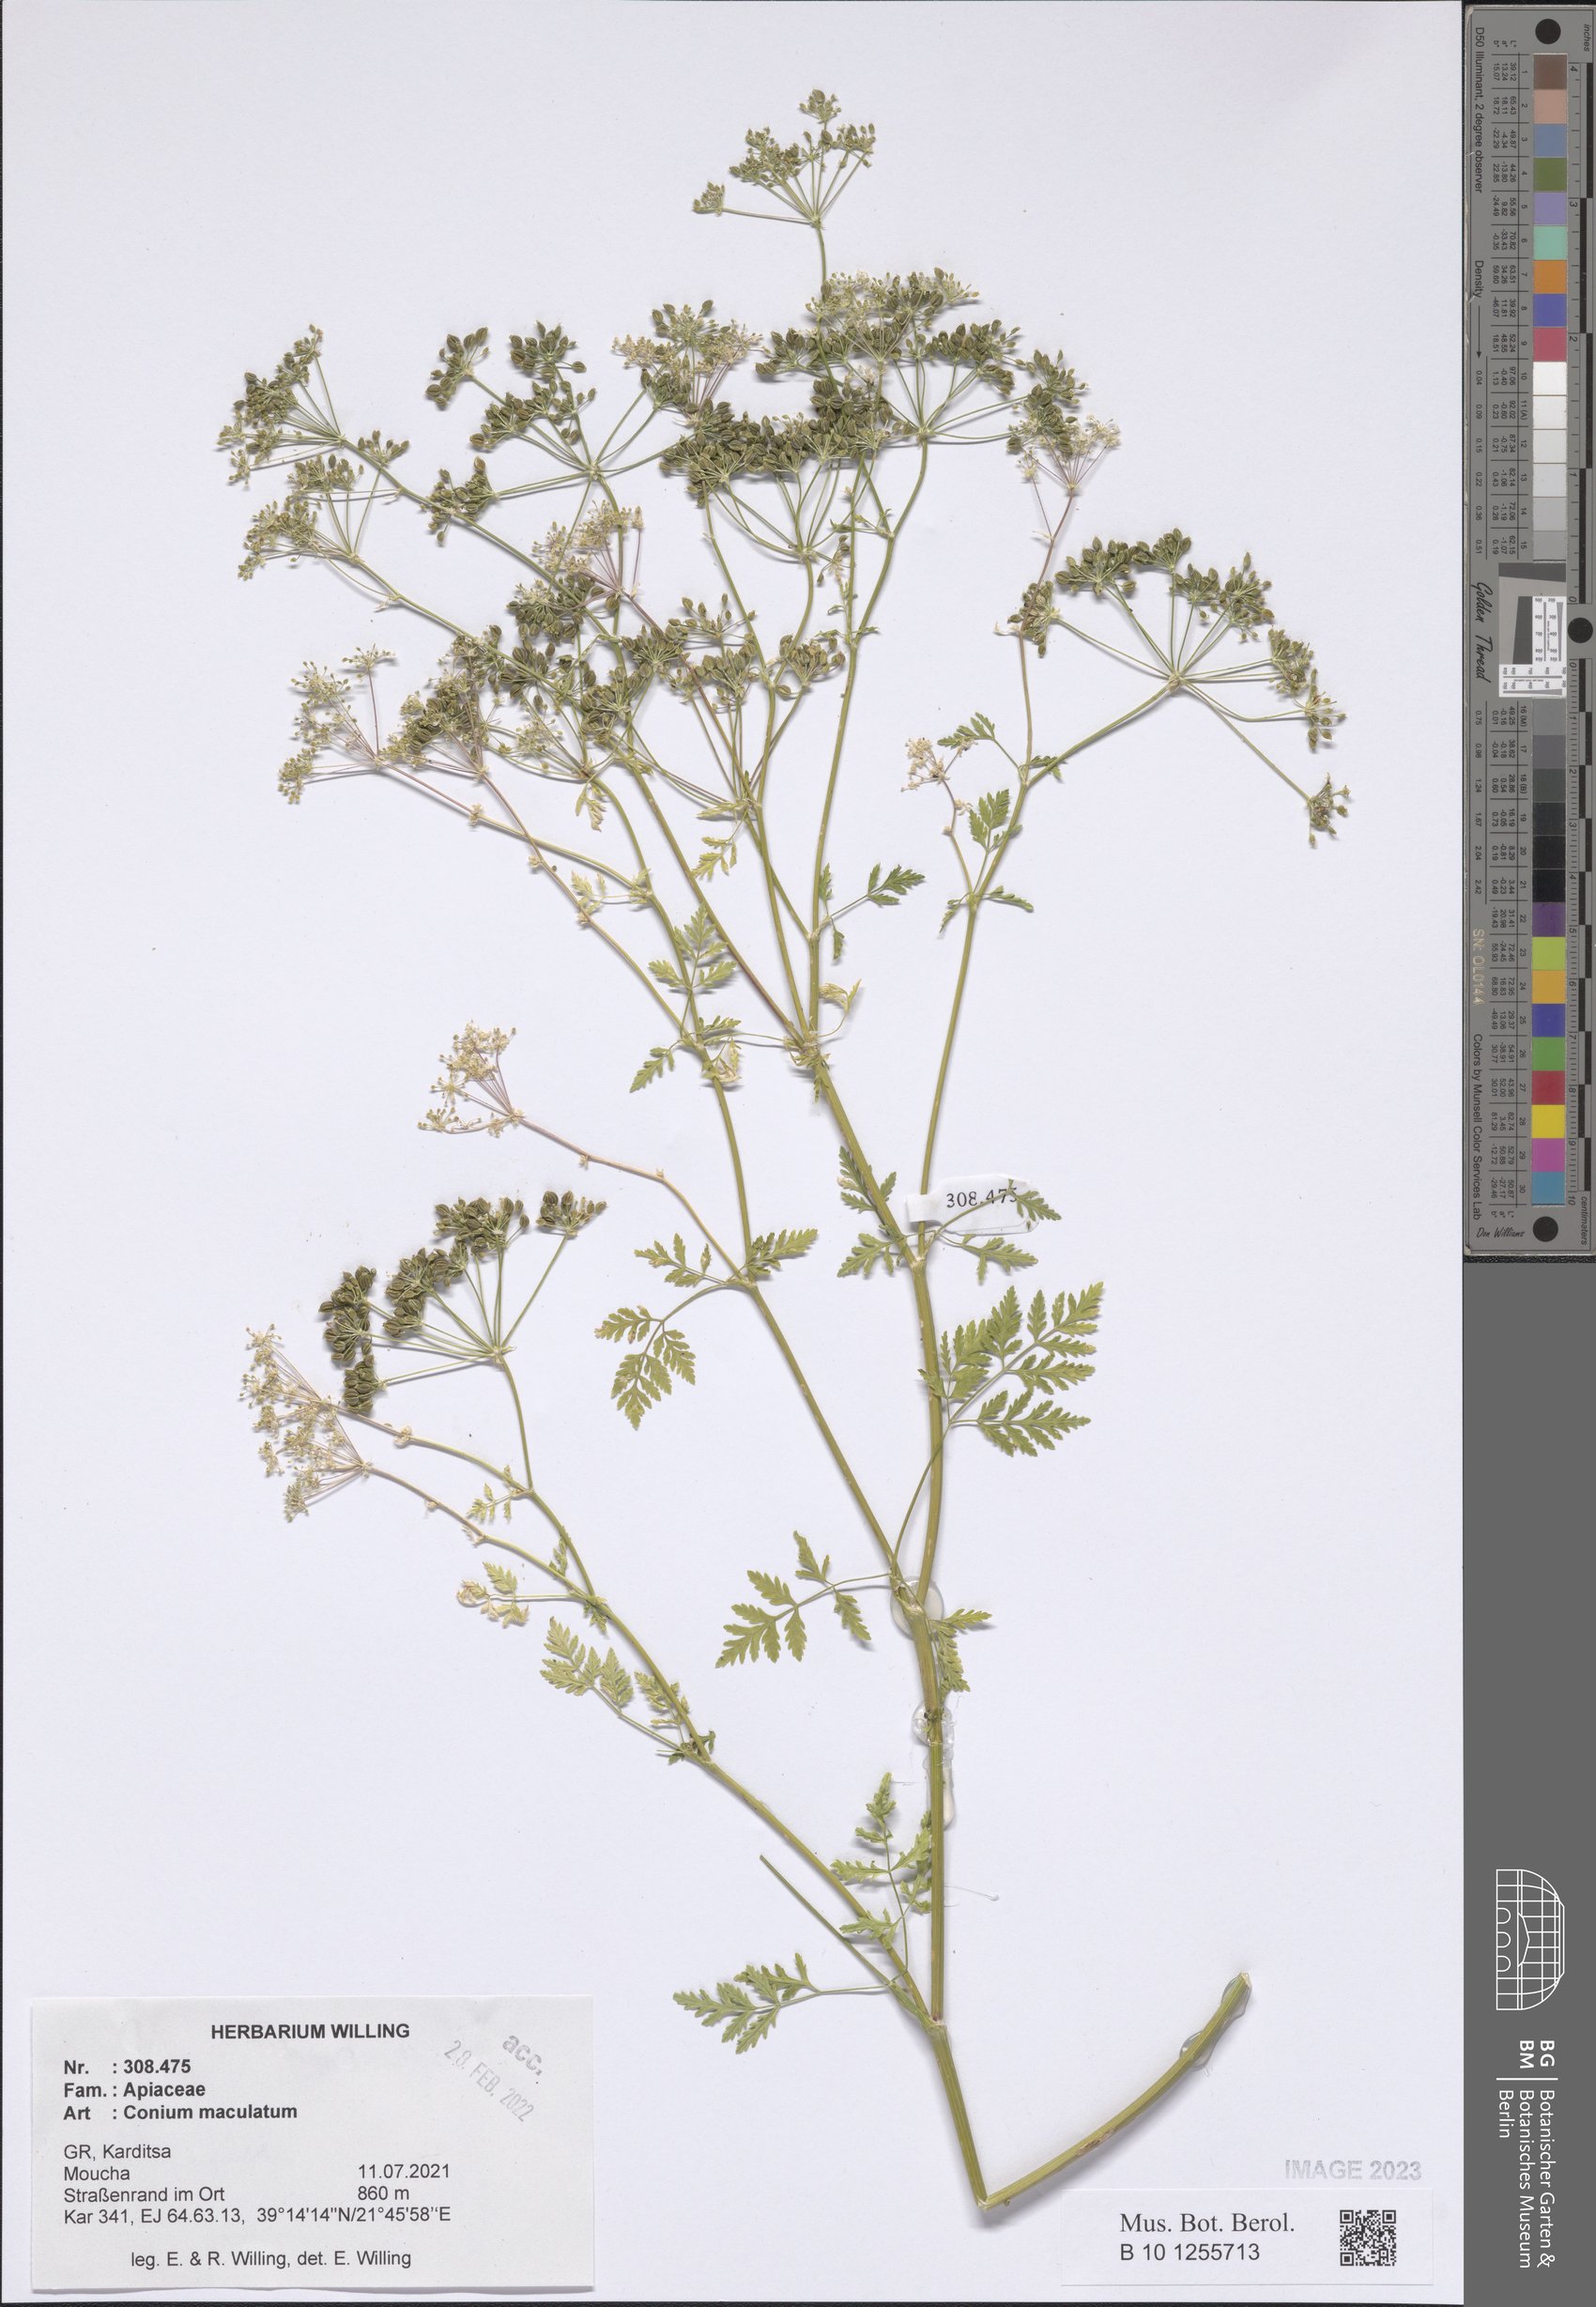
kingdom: Plantae
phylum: Tracheophyta
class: Magnoliopsida
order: Apiales
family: Apiaceae
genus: Conium
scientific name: Conium maculatum
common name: Hemlock
